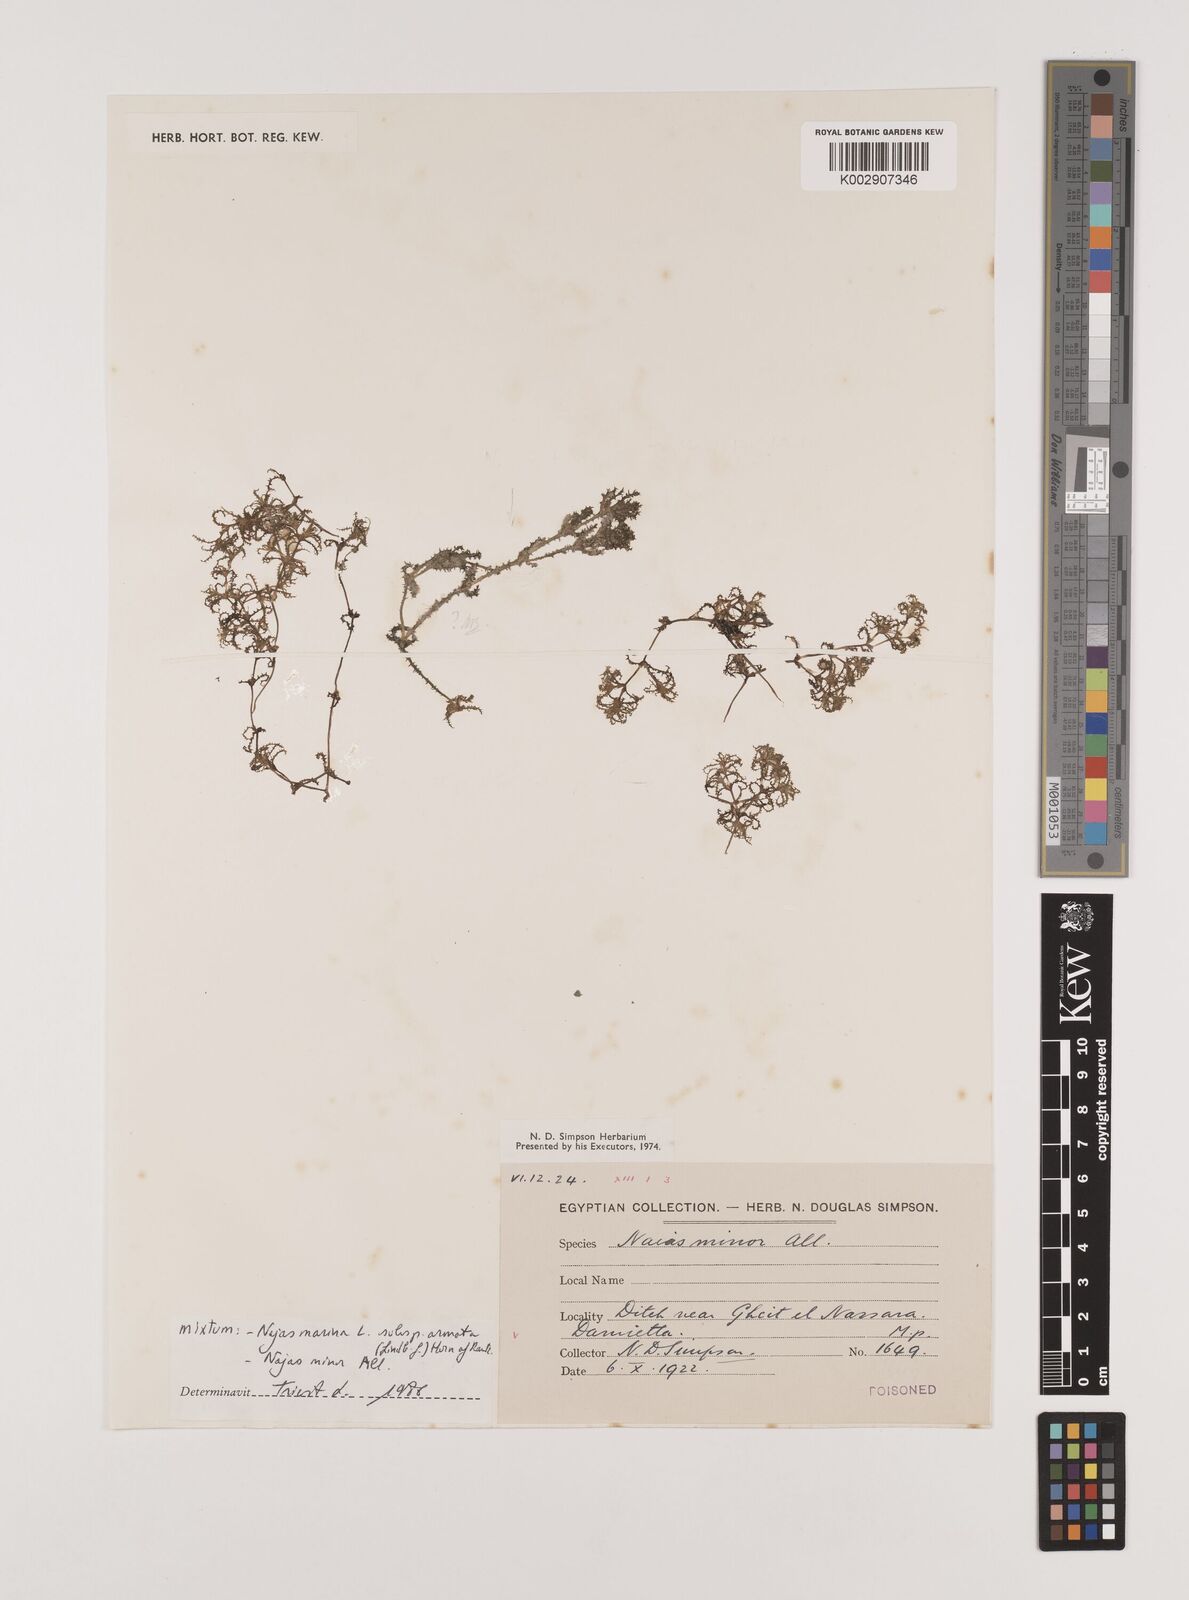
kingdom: Plantae
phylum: Tracheophyta
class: Liliopsida
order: Alismatales
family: Hydrocharitaceae
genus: Najas
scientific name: Najas marina
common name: Holly-leaved naiad
